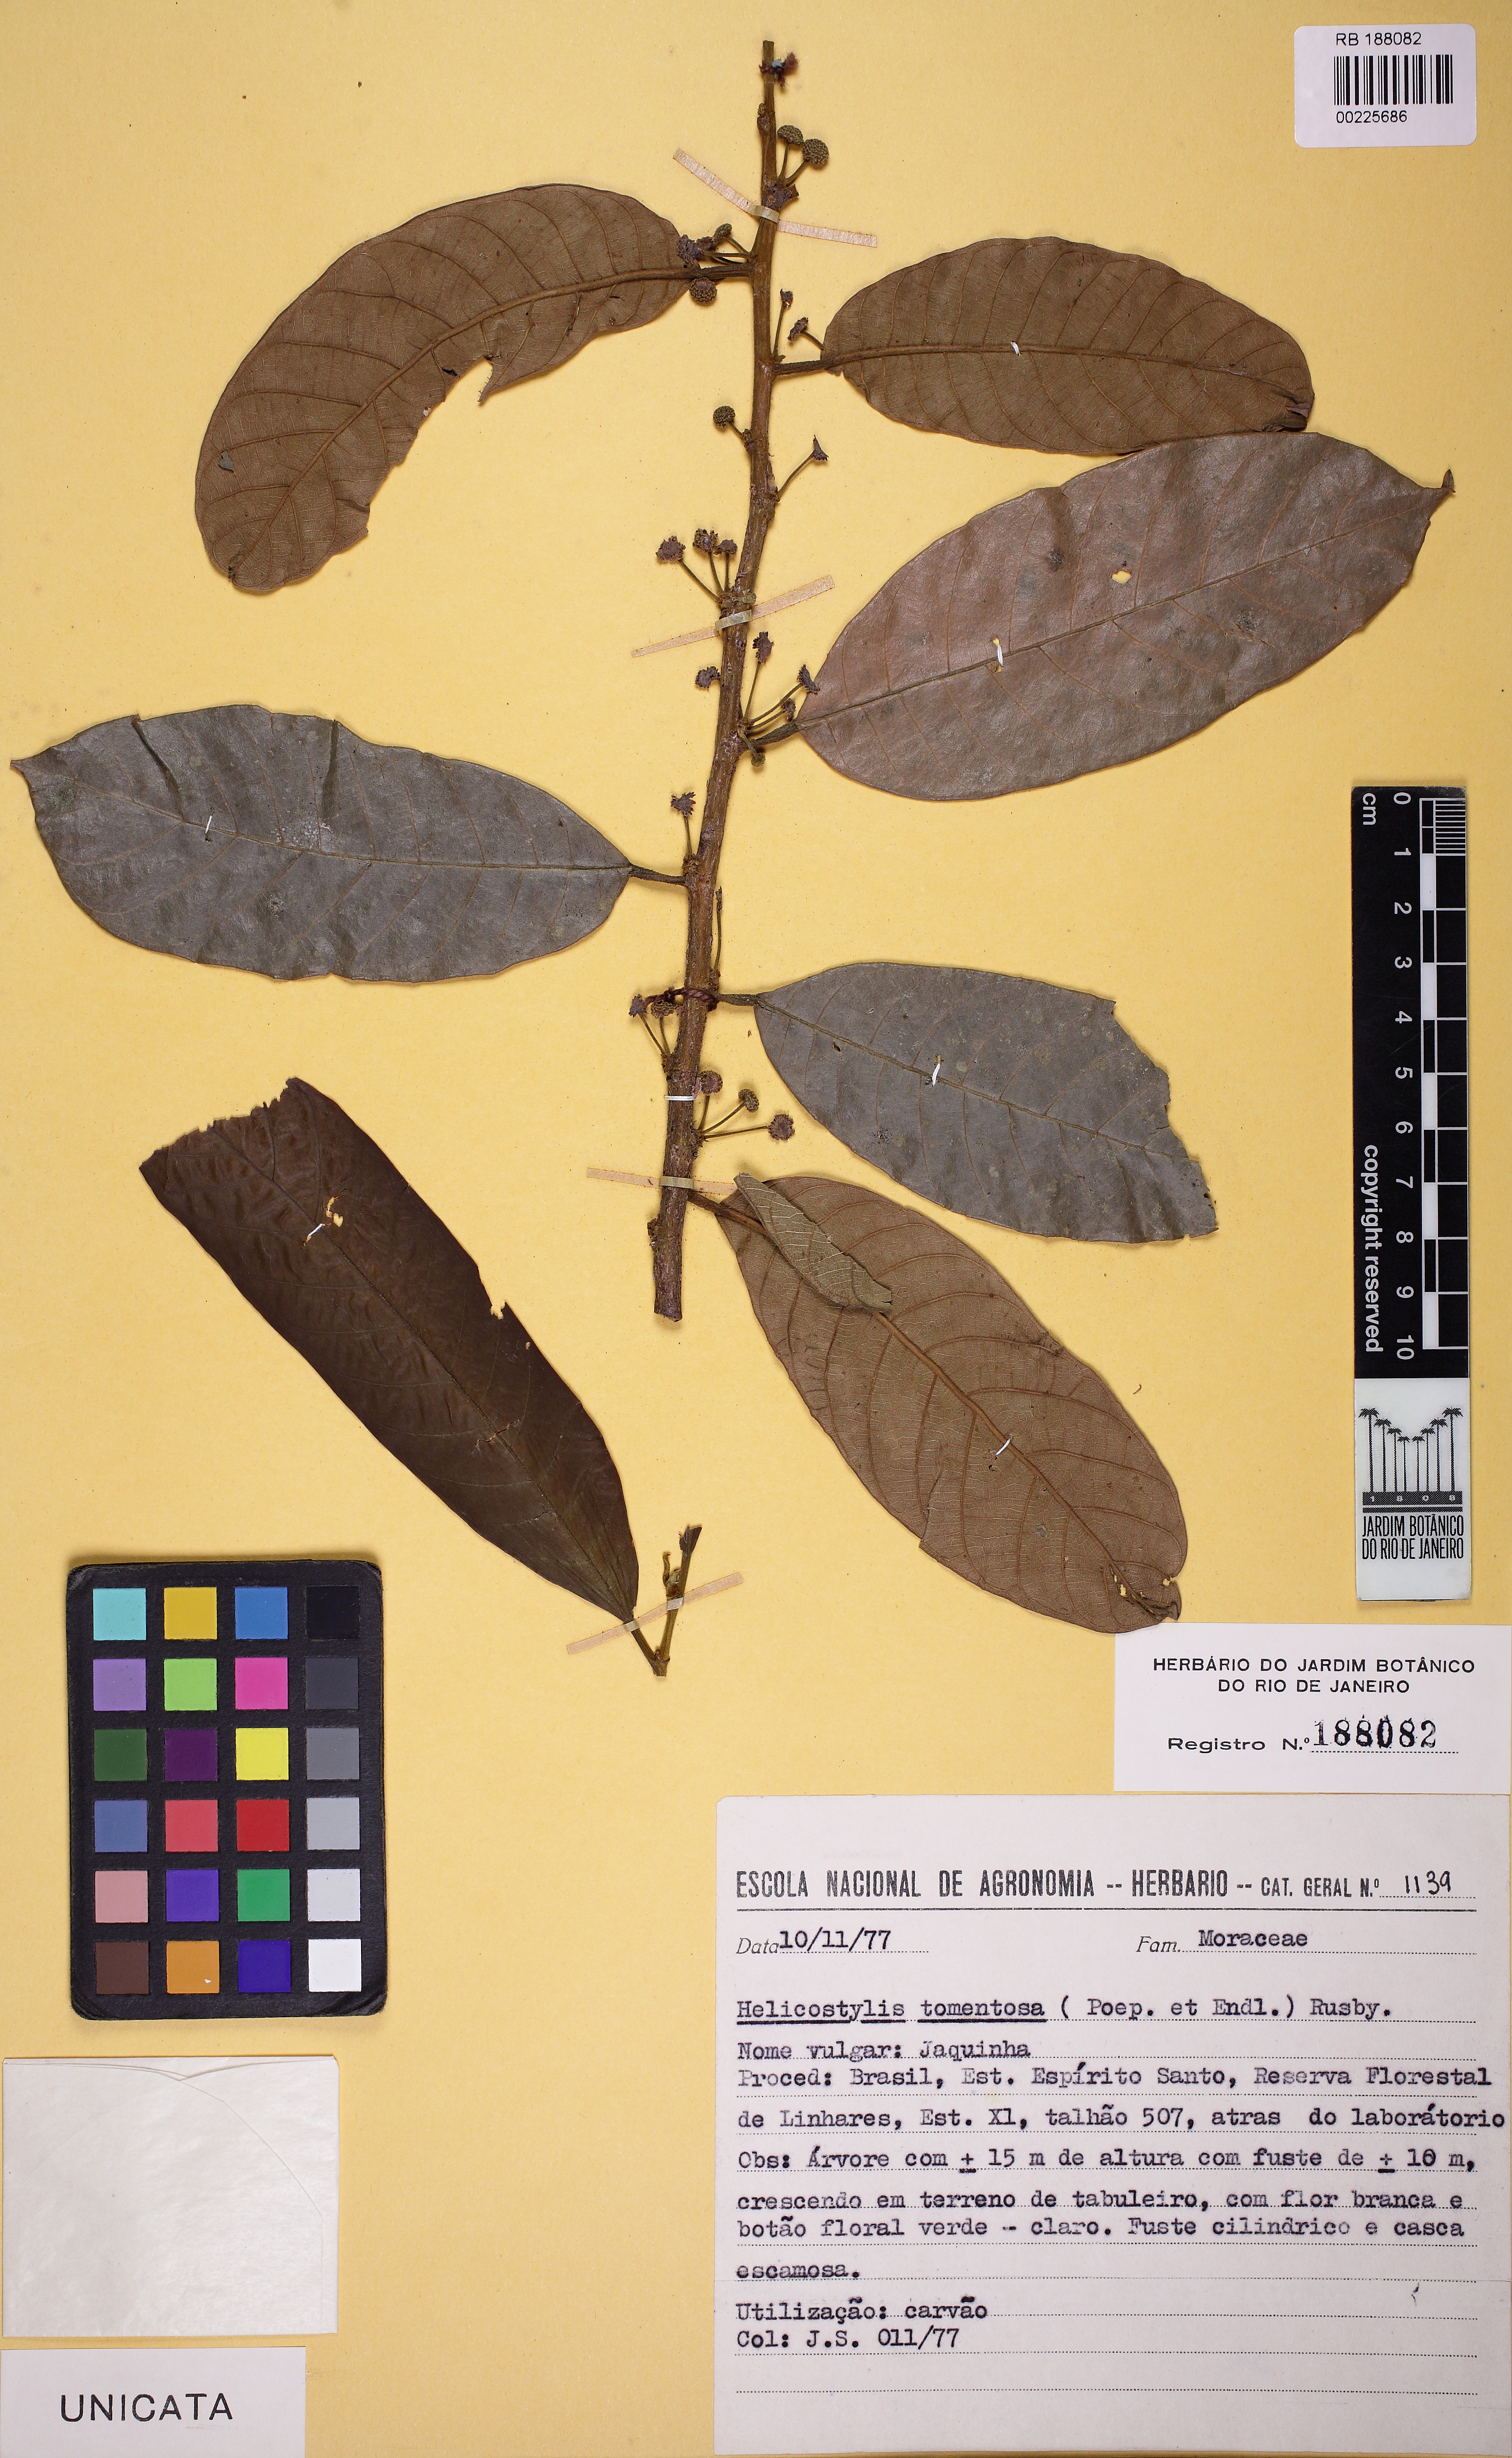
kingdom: Plantae
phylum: Tracheophyta
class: Magnoliopsida
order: Rosales
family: Moraceae
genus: Helicostylis
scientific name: Helicostylis tomentosa
